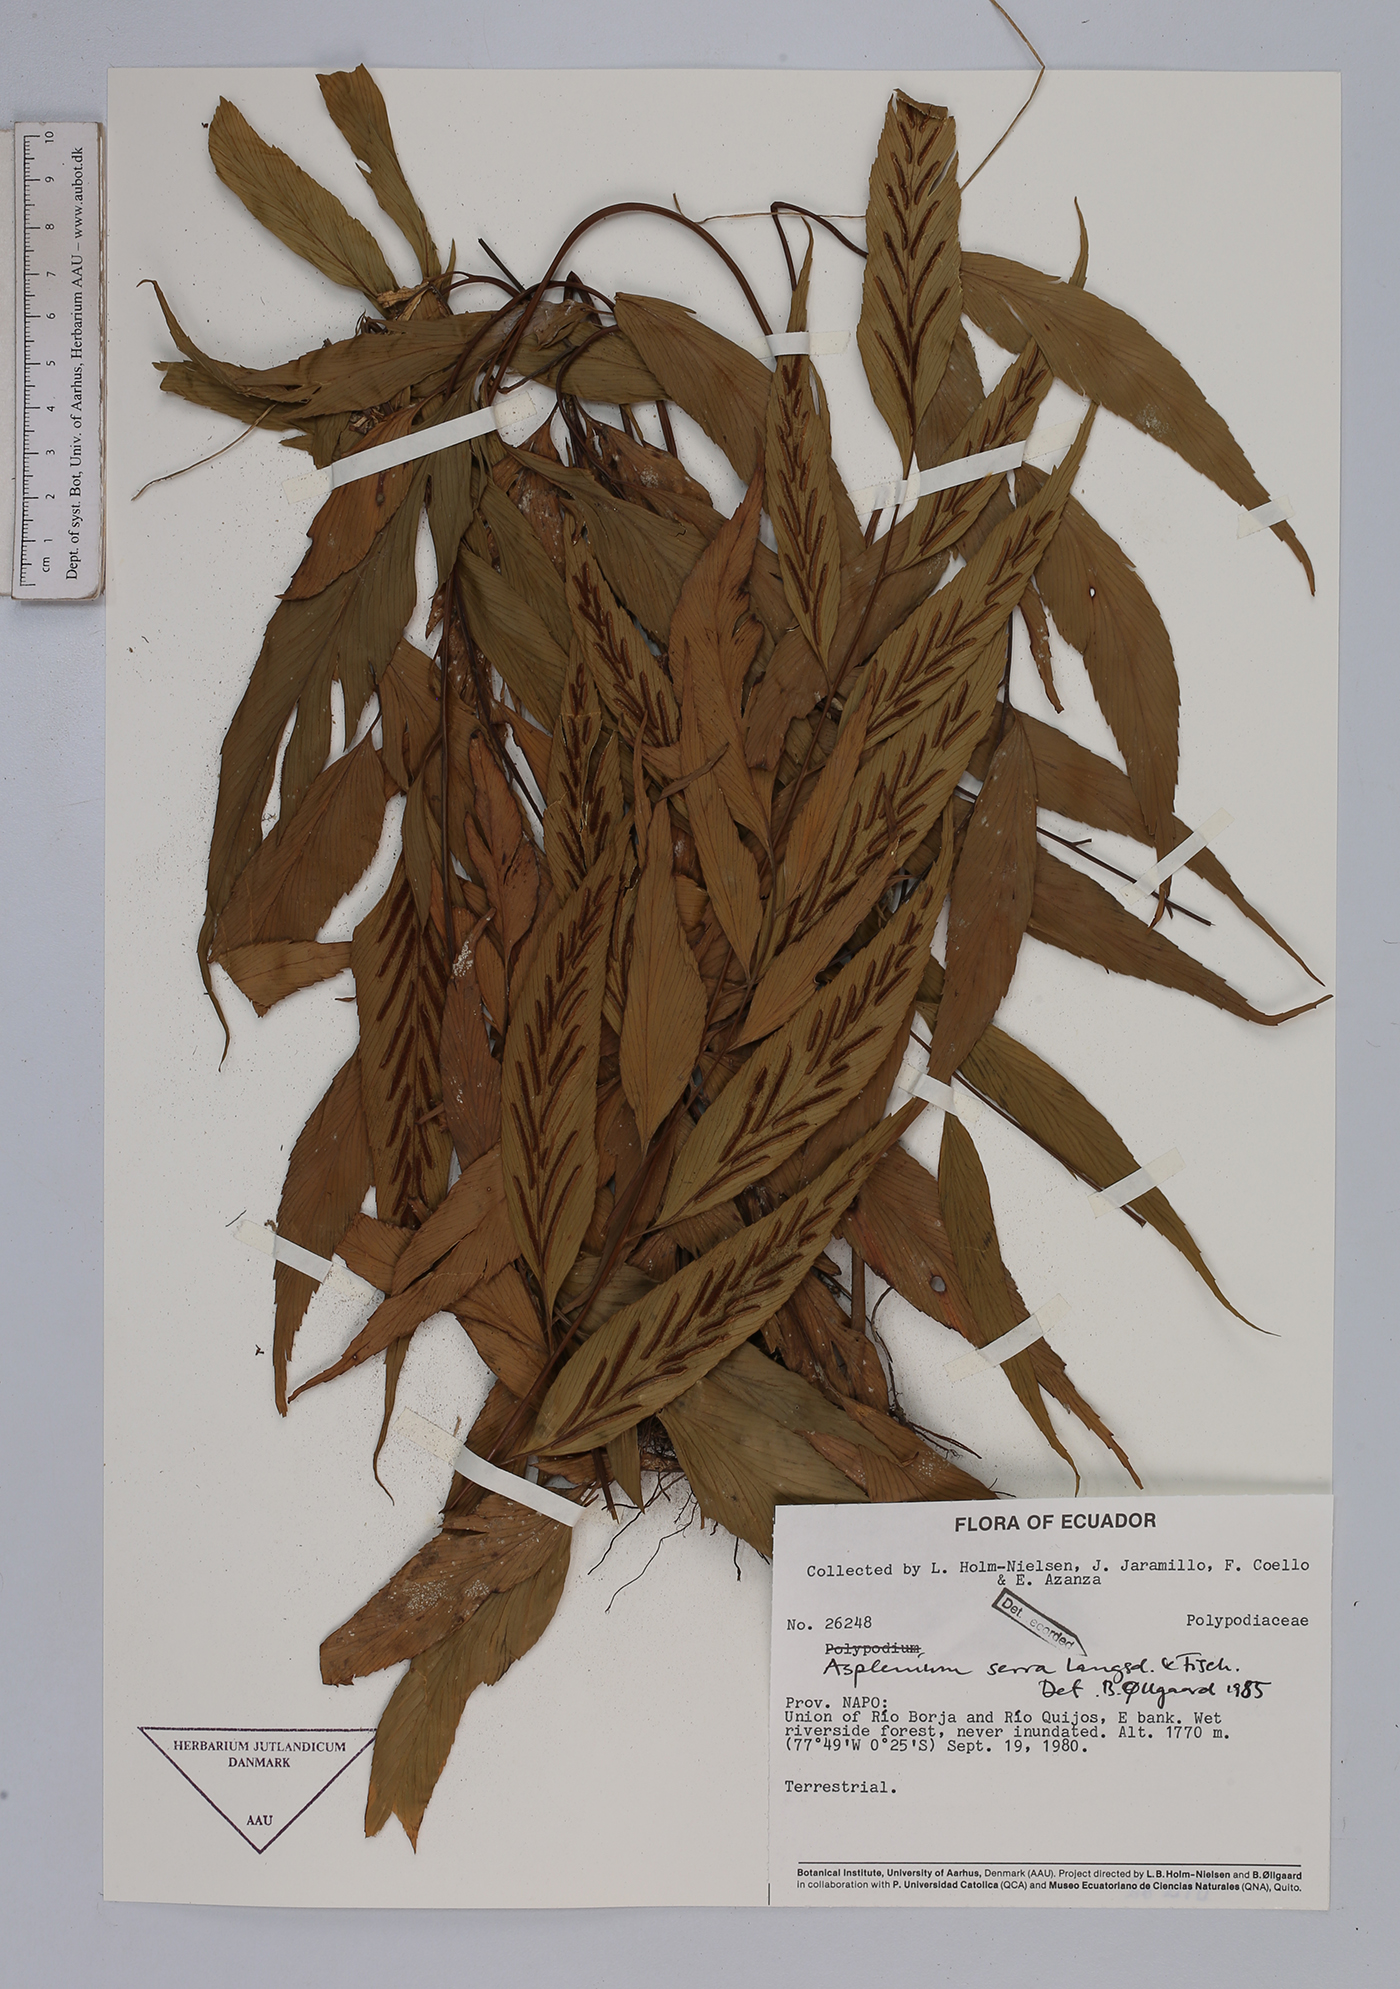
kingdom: Plantae
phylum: Tracheophyta
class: Polypodiopsida
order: Polypodiales
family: Aspleniaceae
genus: Asplenium
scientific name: Asplenium serra
